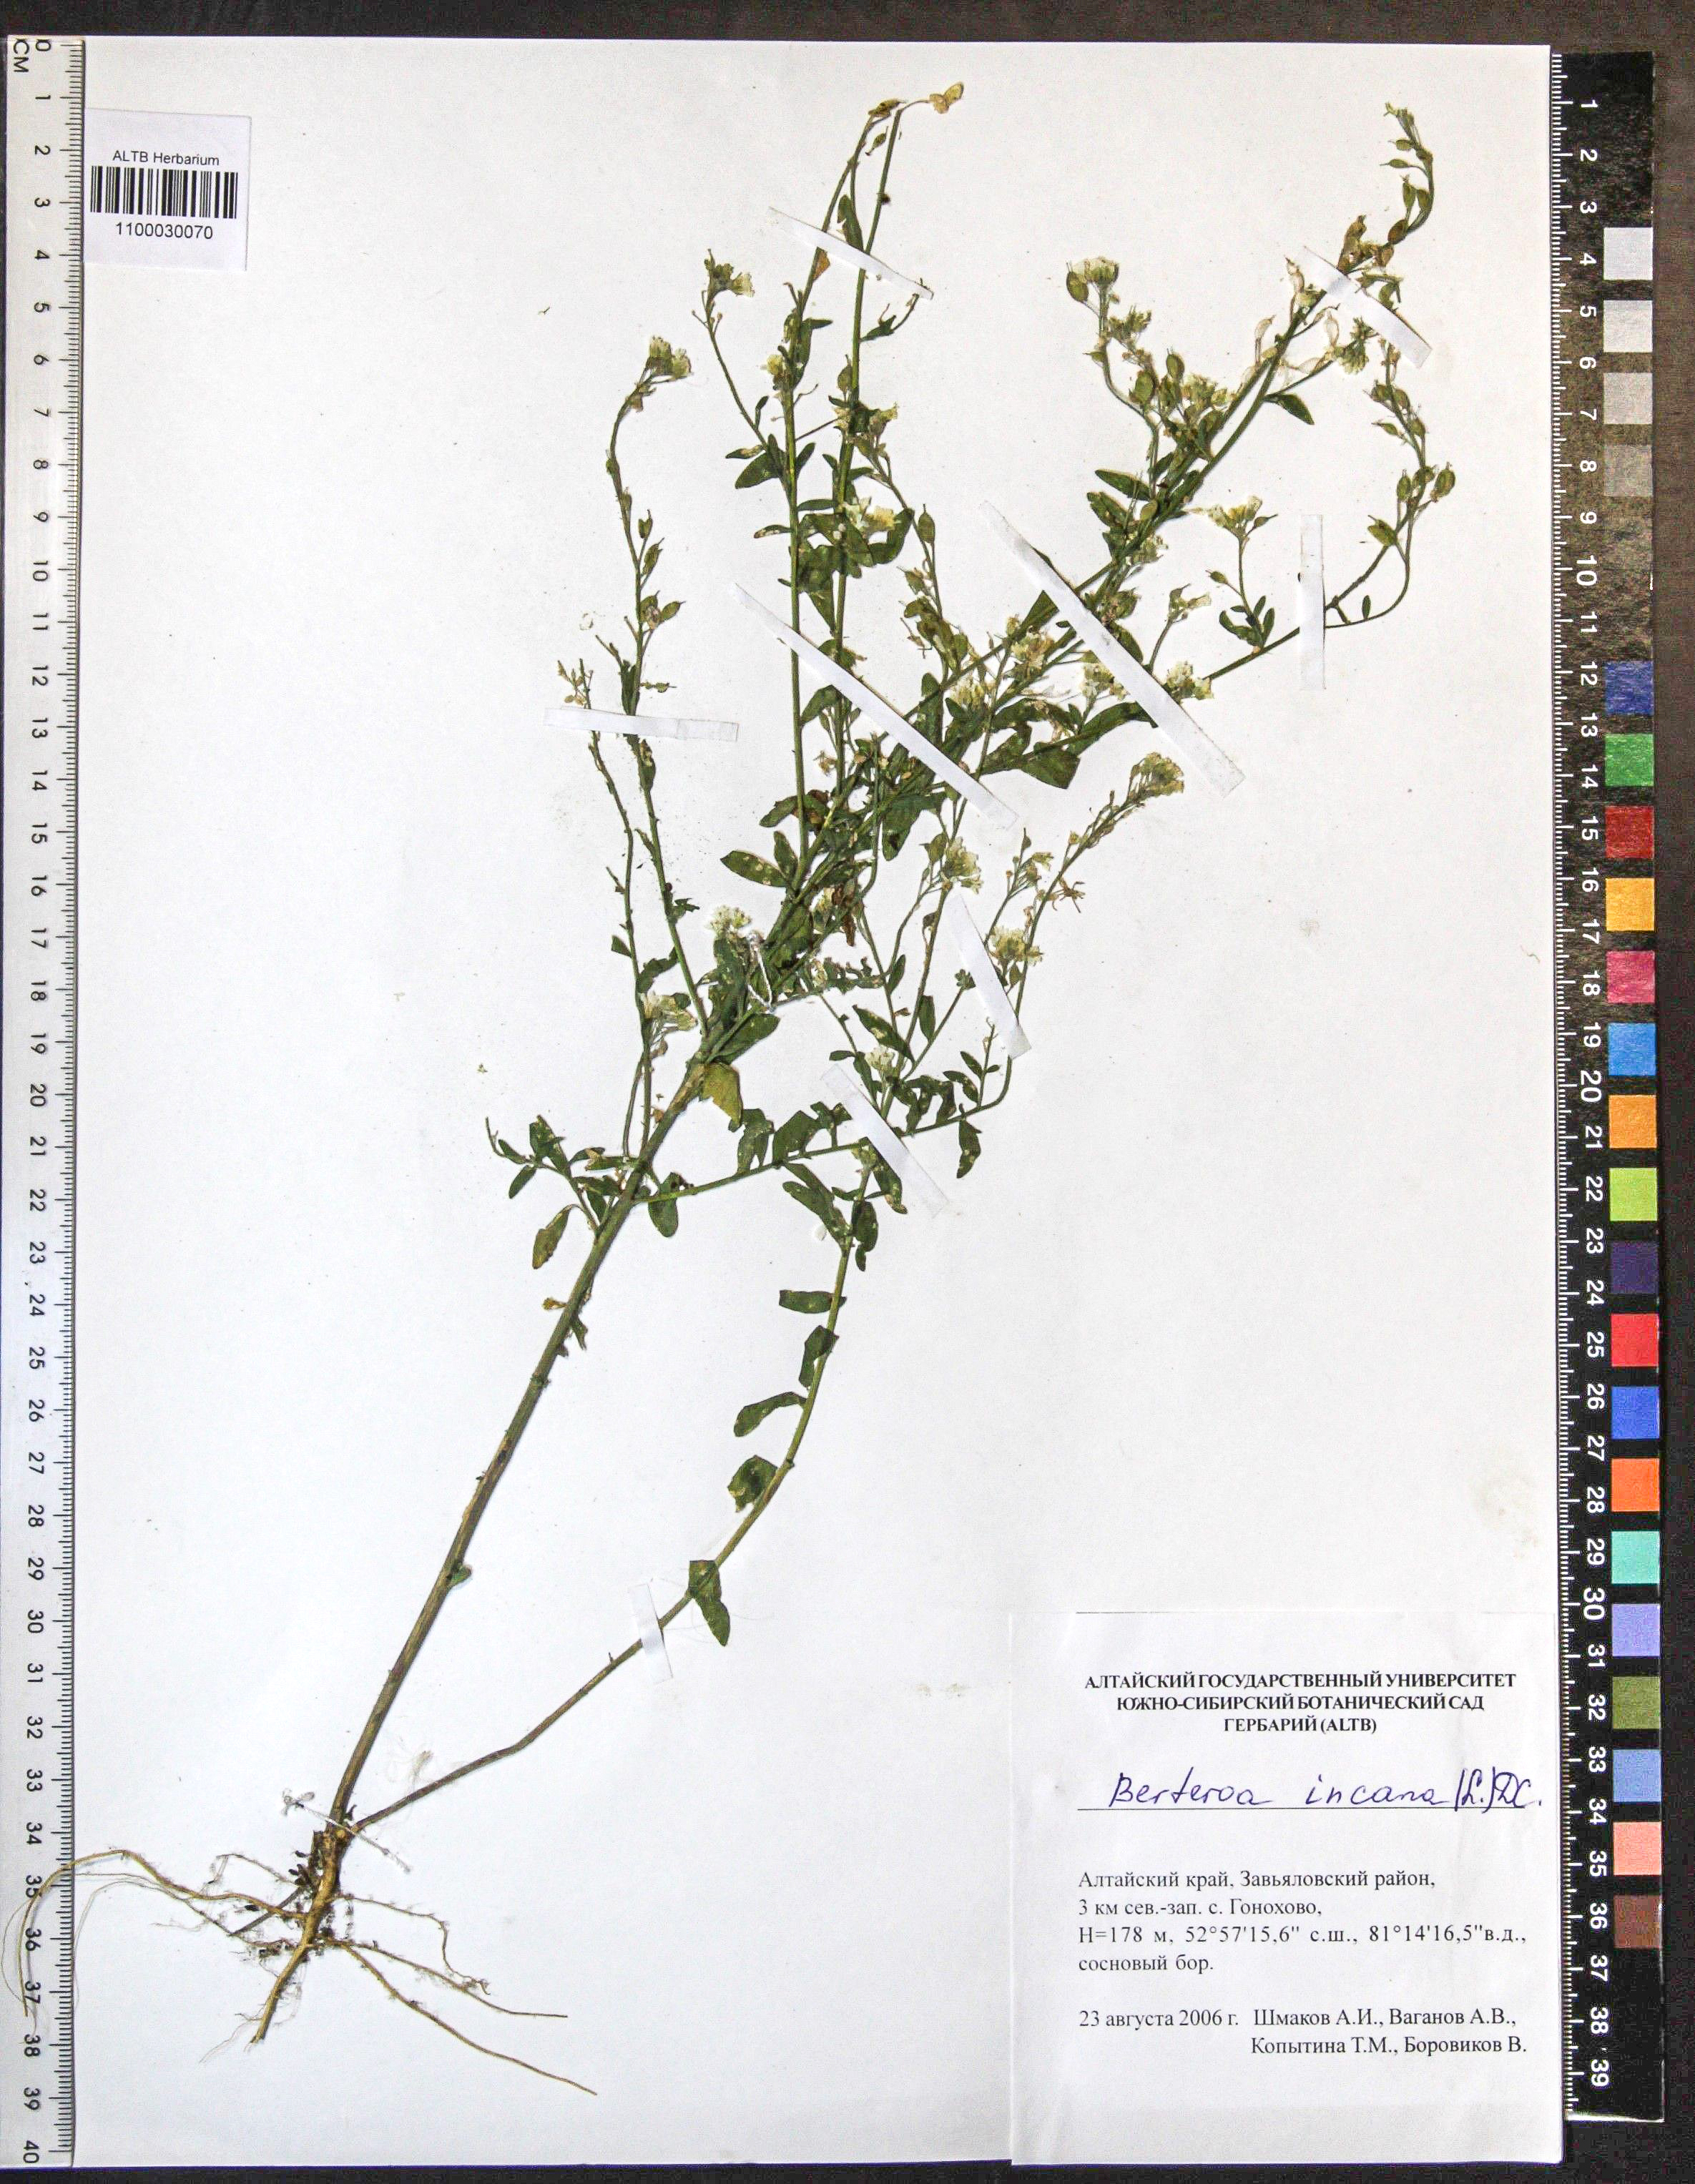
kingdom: Plantae
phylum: Tracheophyta
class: Magnoliopsida
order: Brassicales
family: Brassicaceae
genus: Berteroa
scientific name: Berteroa incana
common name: Hoary alison
